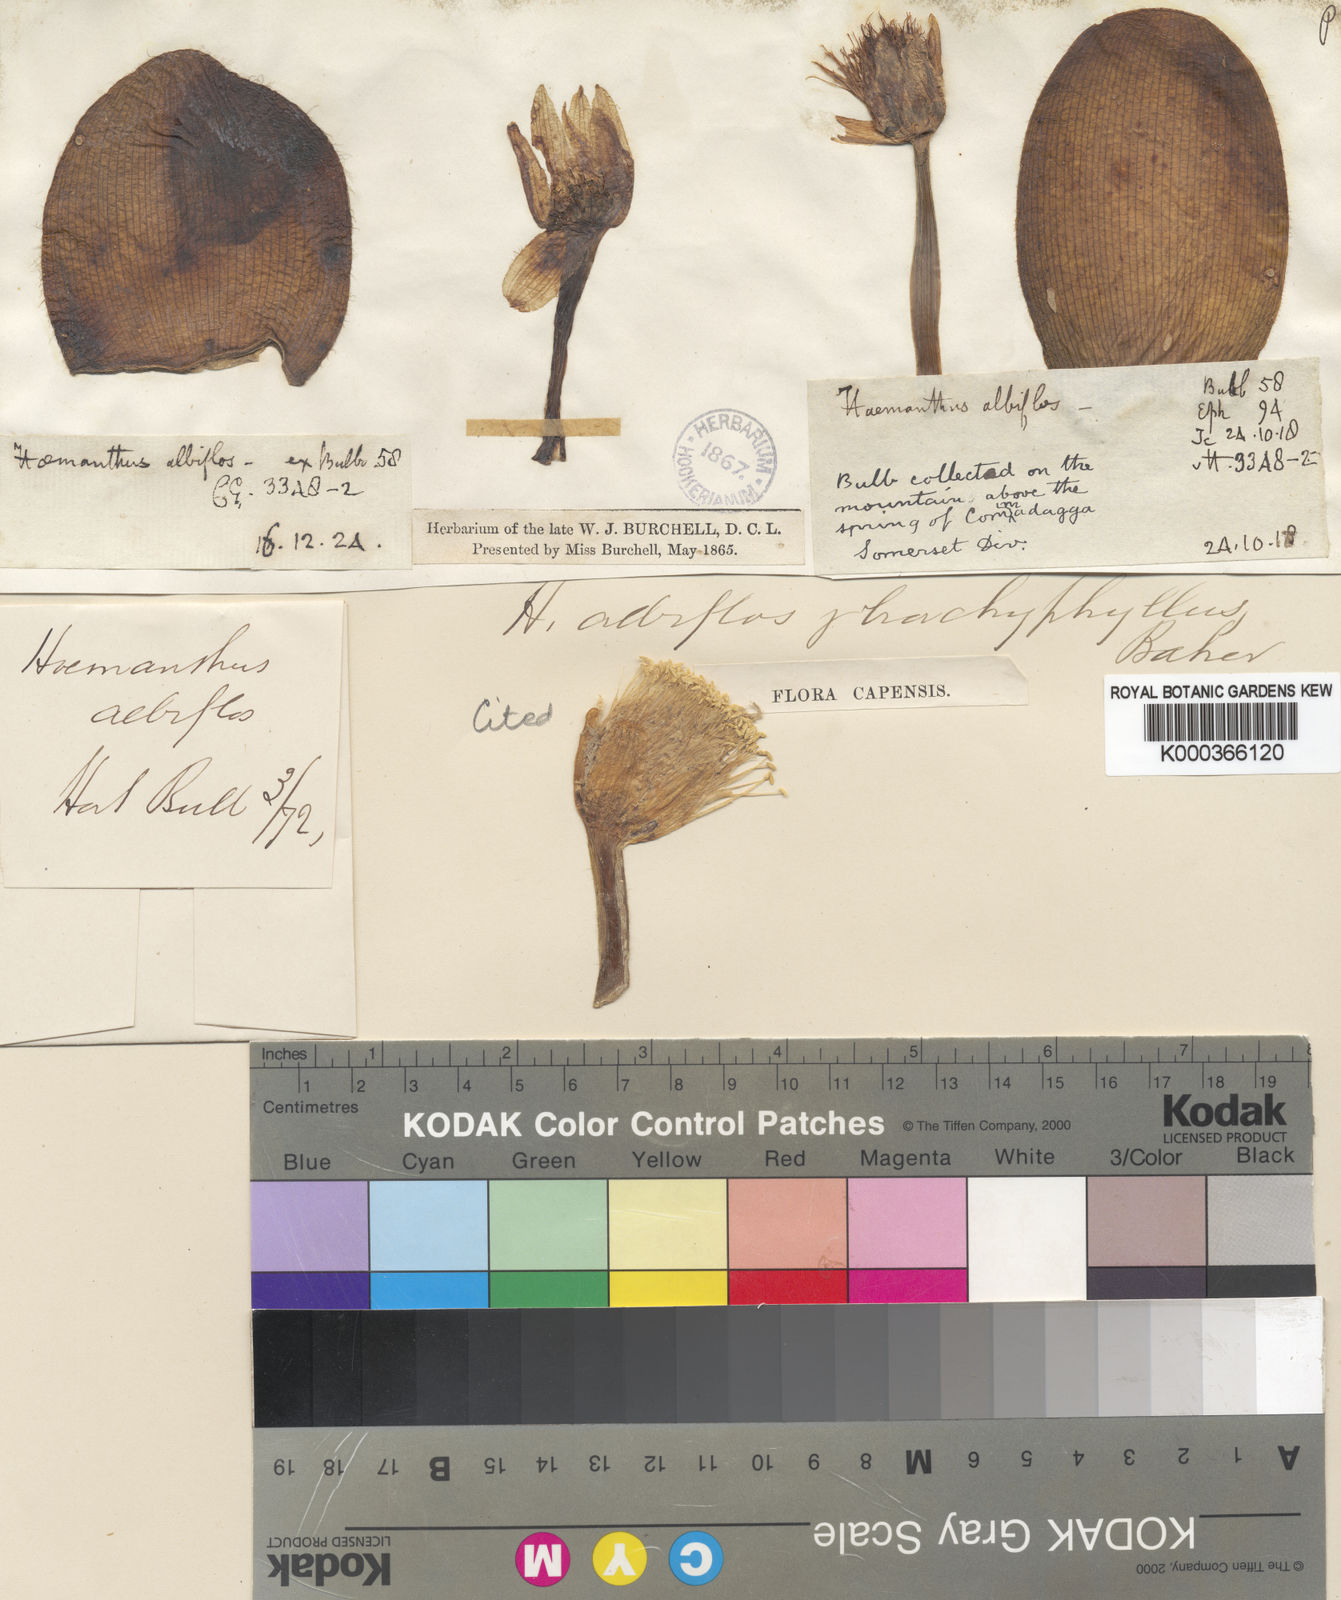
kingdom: Plantae
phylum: Tracheophyta
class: Liliopsida
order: Asparagales
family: Amaryllidaceae
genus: Haemanthus
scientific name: Haemanthus albiflos
